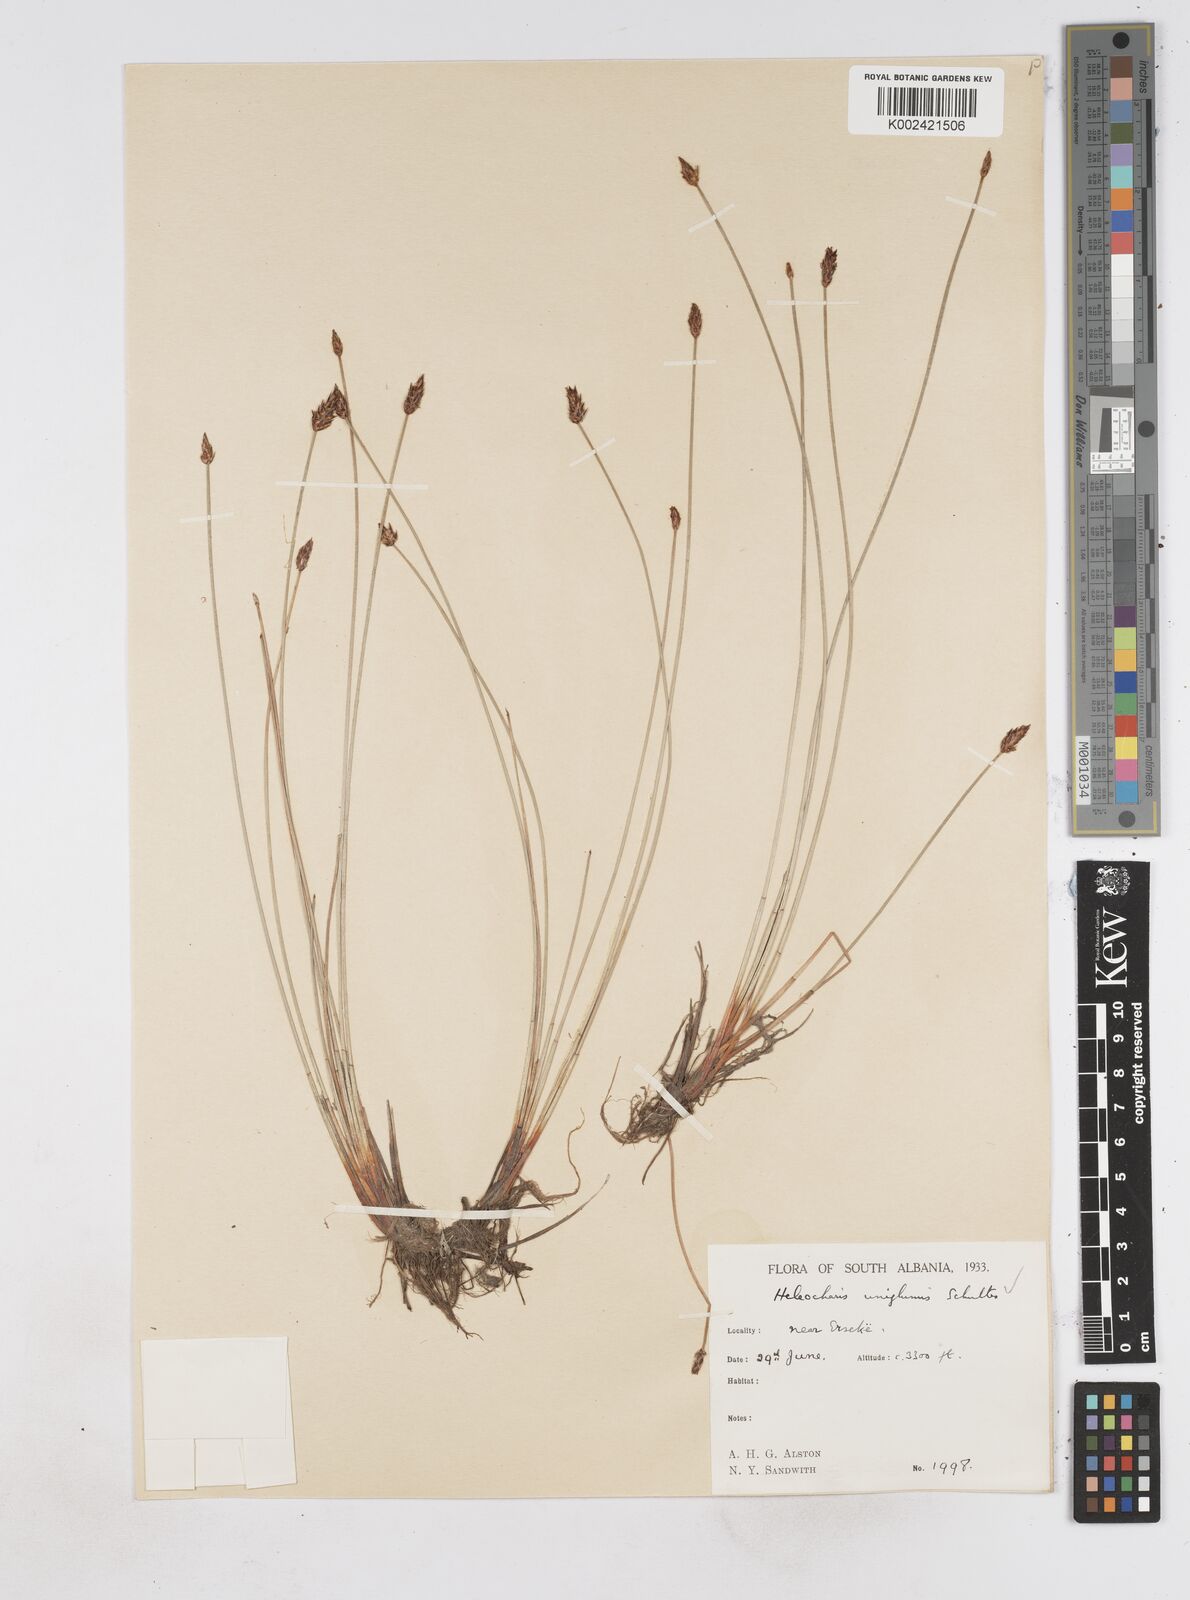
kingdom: Plantae
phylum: Tracheophyta
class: Liliopsida
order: Poales
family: Cyperaceae
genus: Eleocharis
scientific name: Eleocharis uniglumis
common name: Slender spike-rush
